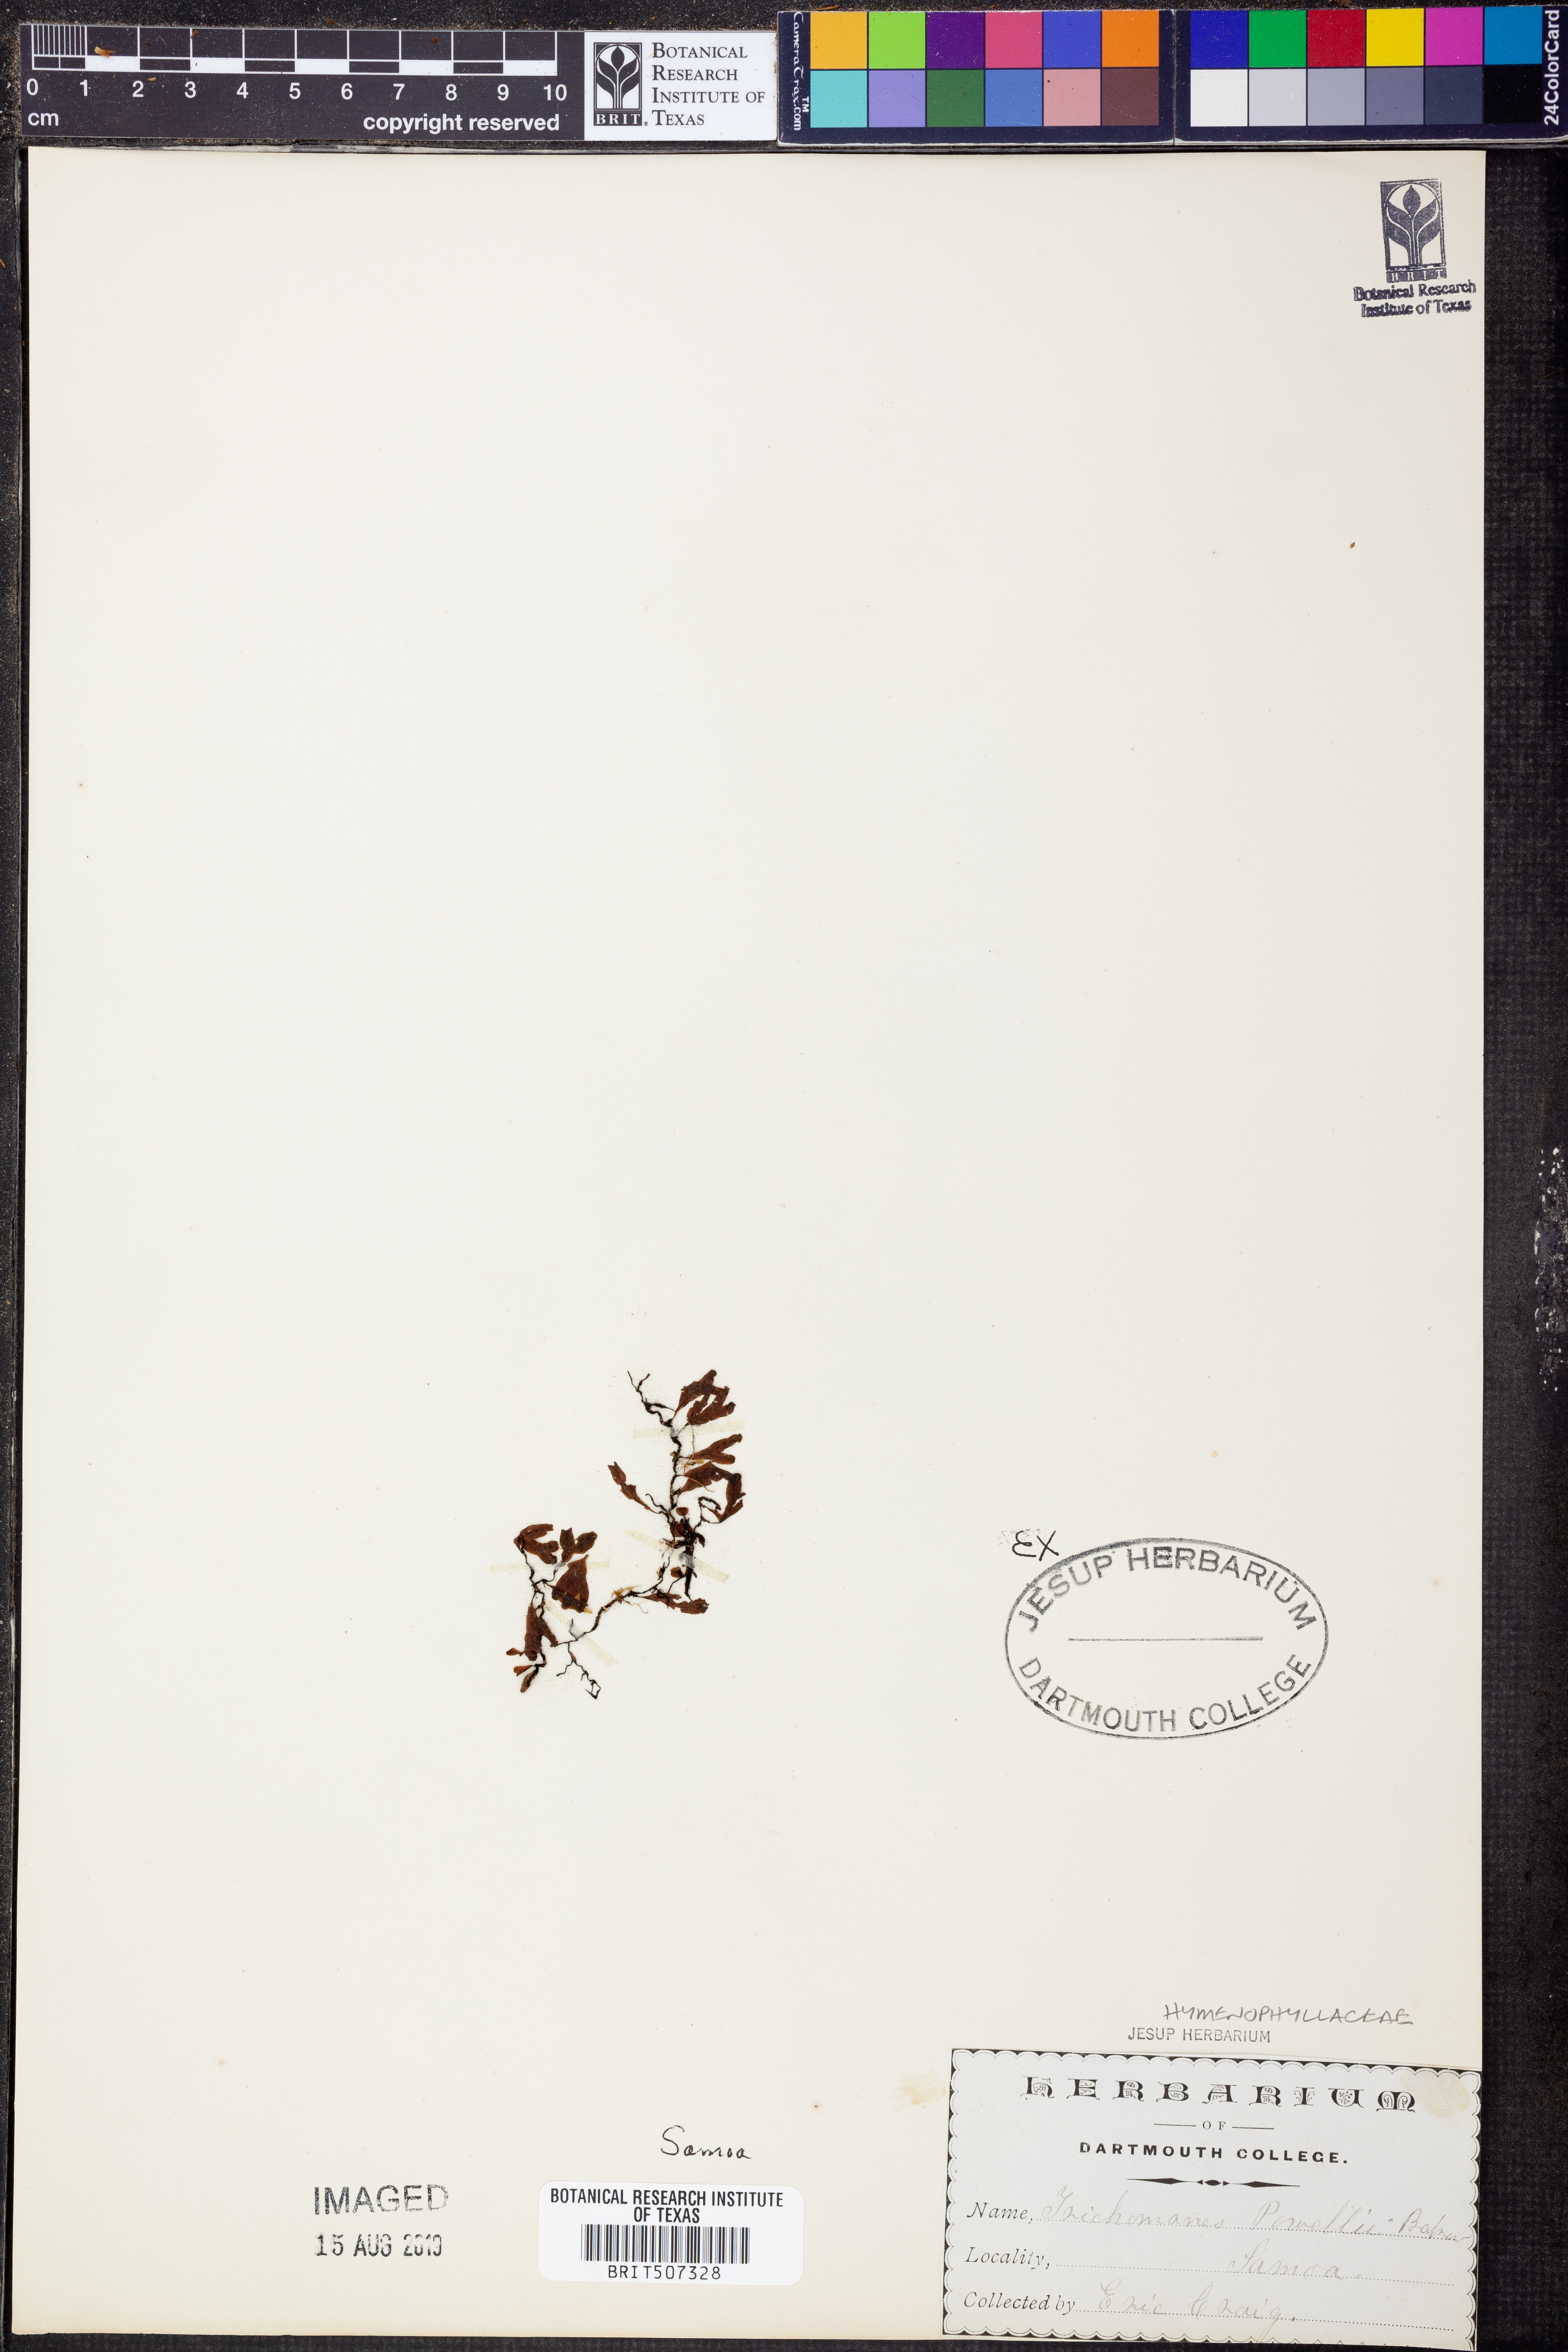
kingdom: Plantae
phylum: Tracheophyta
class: Polypodiopsida
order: Hymenophyllales
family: Hymenophyllaceae
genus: Crepidomanes
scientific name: Crepidomanes powellii
